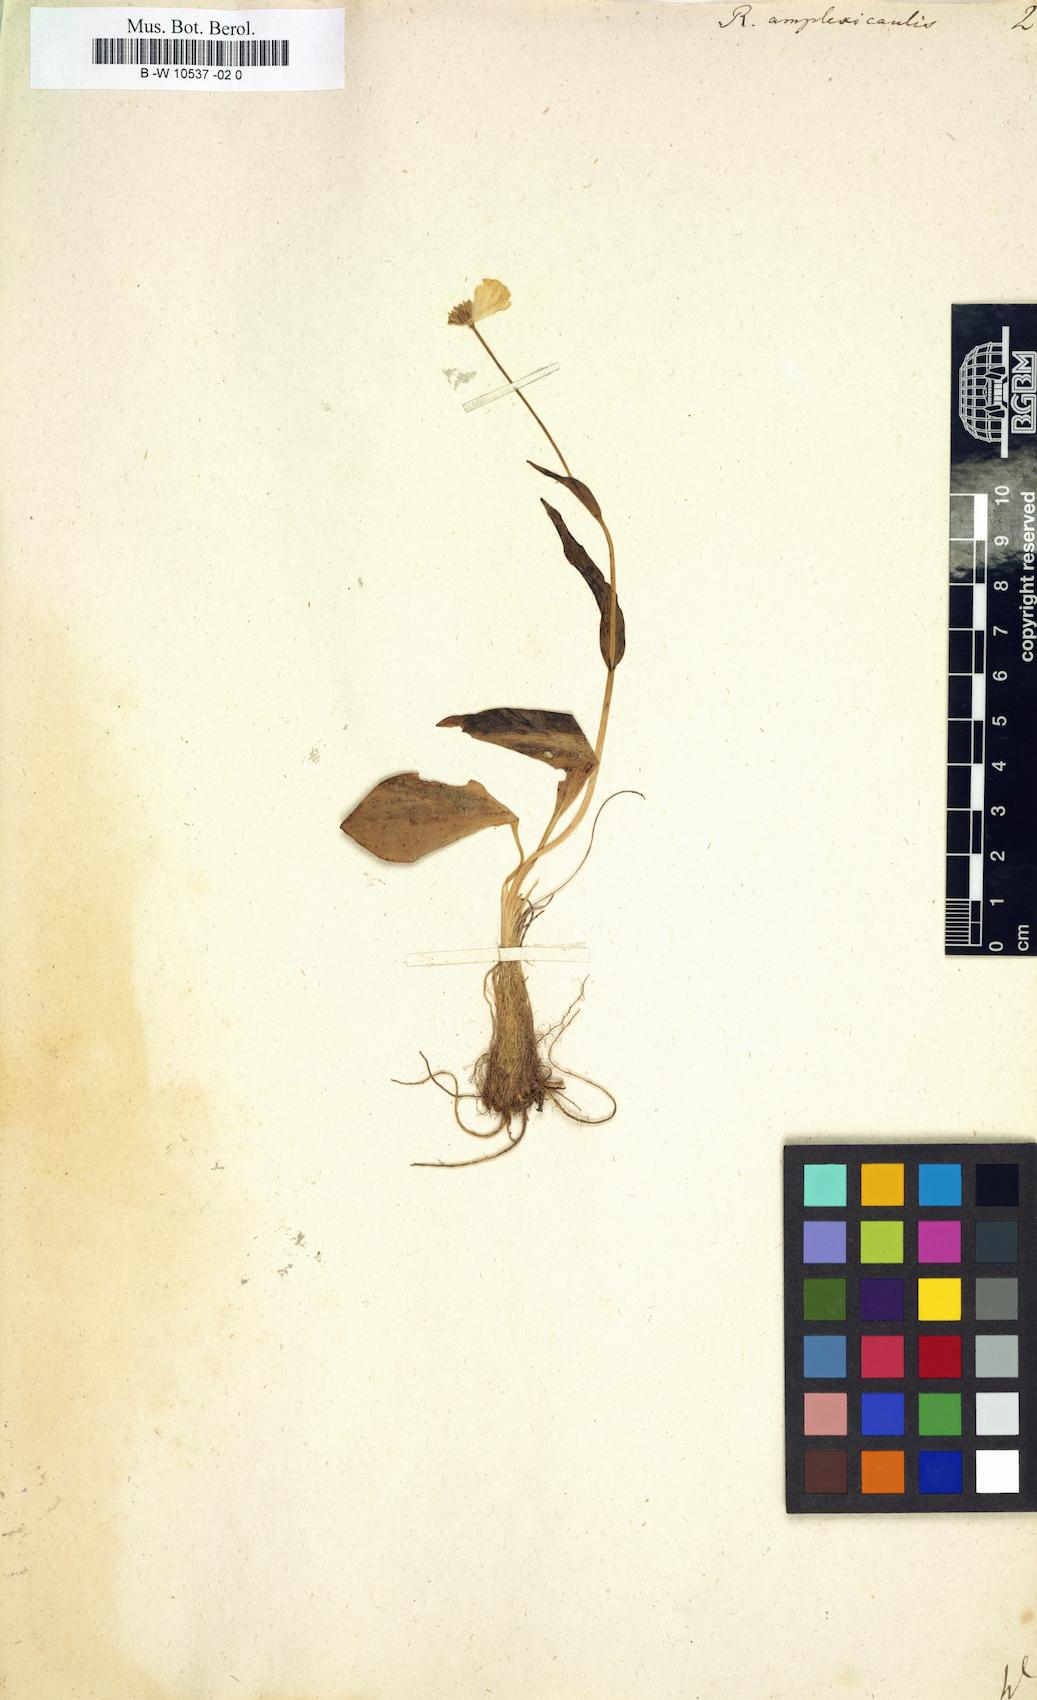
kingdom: Plantae
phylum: Tracheophyta
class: Magnoliopsida
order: Ranunculales
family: Ranunculaceae
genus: Ranunculus
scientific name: Ranunculus amplexicaulis
